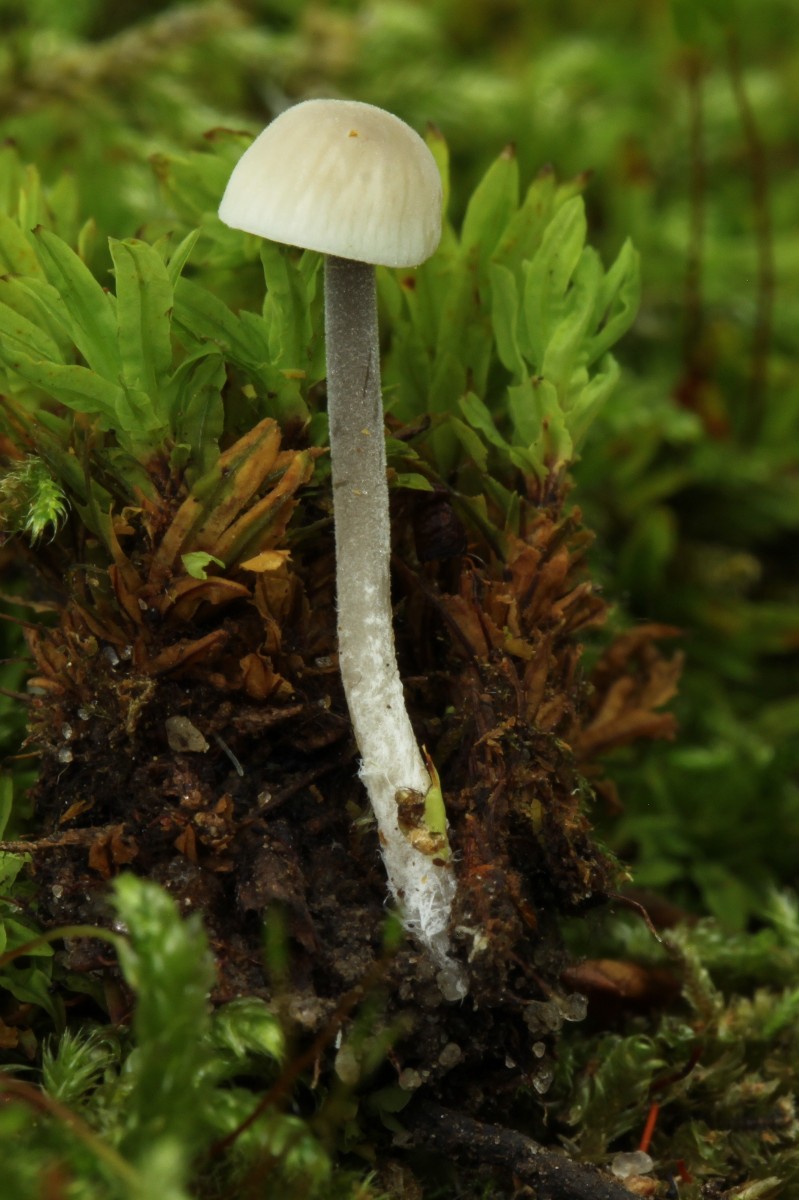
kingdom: Fungi
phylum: Basidiomycota
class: Agaricomycetes
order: Agaricales
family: Tricholomataceae
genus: Mycenella
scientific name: Mycenella
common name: dughat
